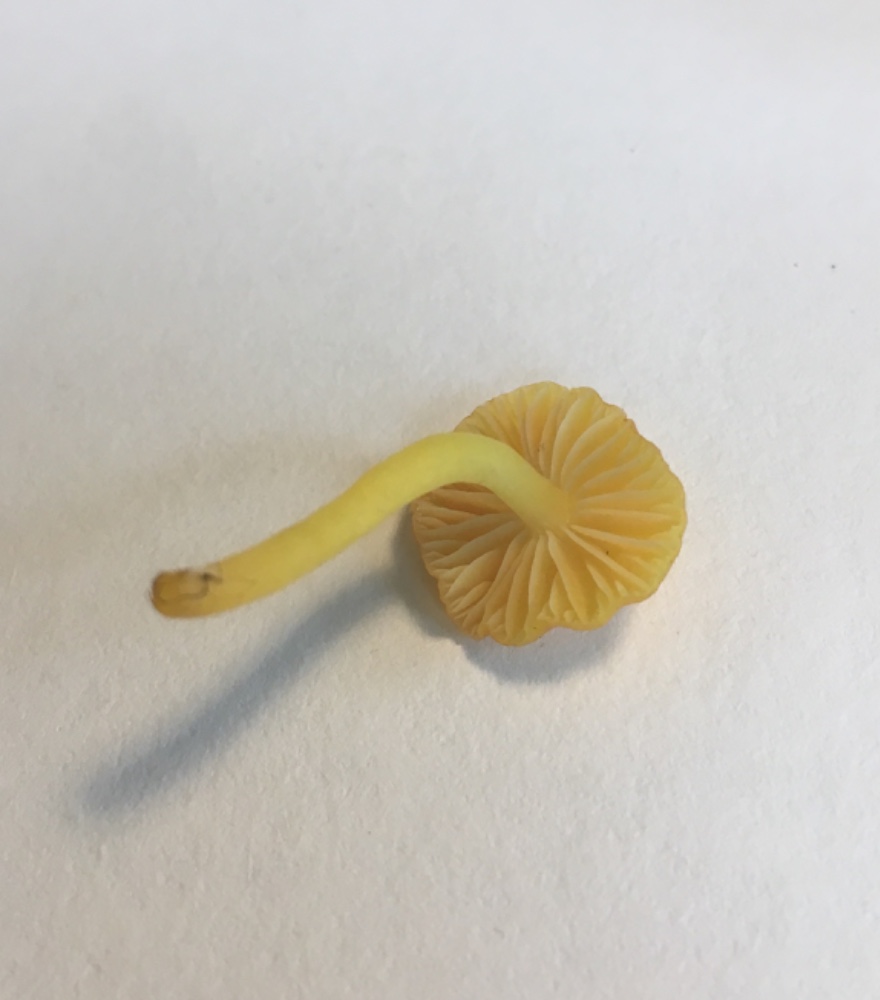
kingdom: Fungi
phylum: Basidiomycota
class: Agaricomycetes
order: Agaricales
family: Hygrophoraceae
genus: Hygrocybe
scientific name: Hygrocybe ceracea
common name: voksgul vokshat
